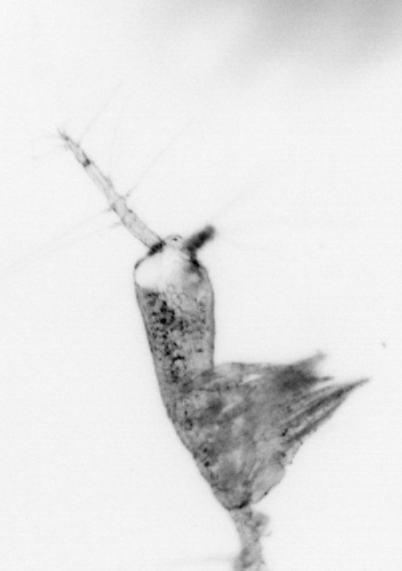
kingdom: Animalia
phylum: Arthropoda
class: Copepoda
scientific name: Copepoda
